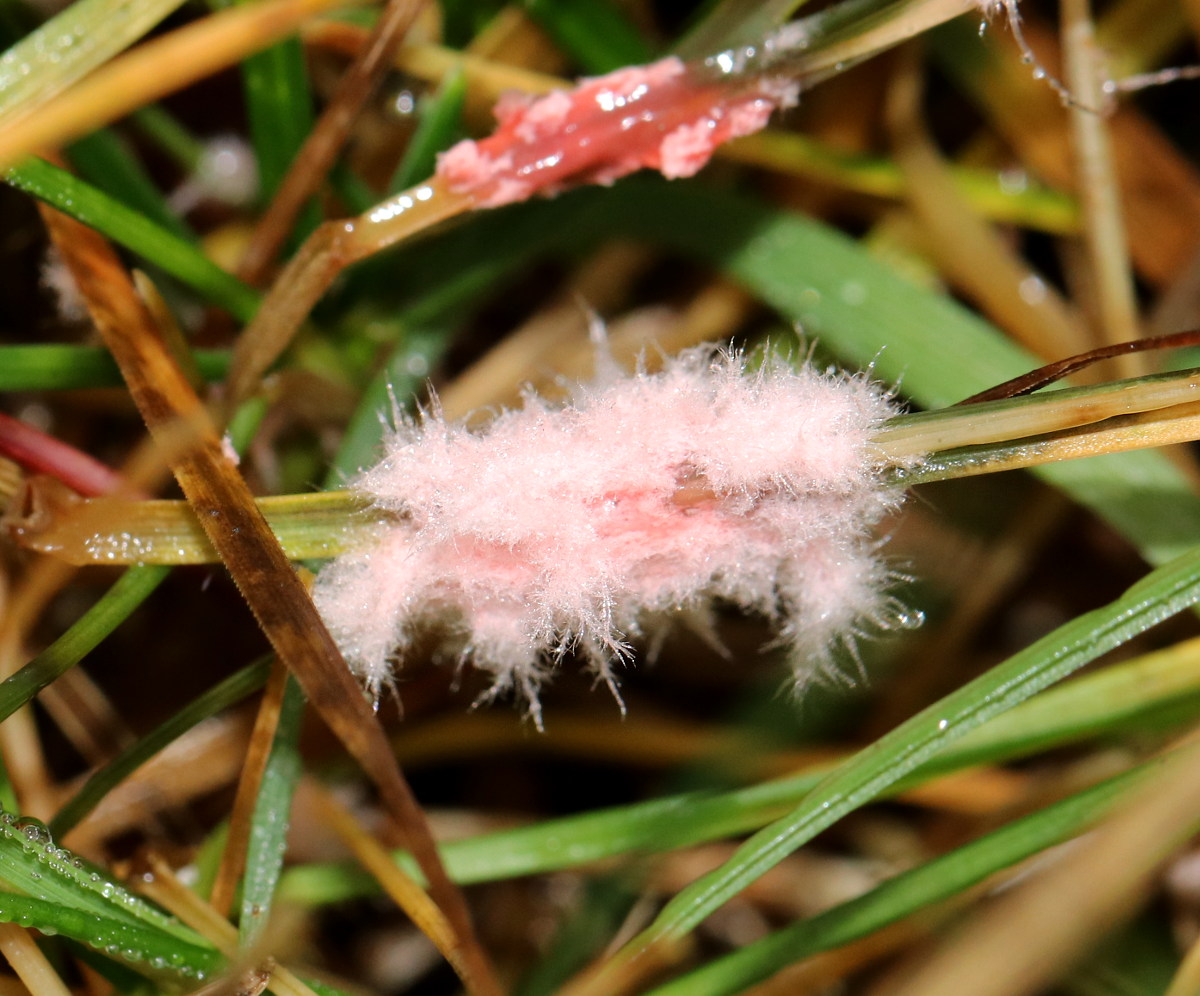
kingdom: Fungi
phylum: Basidiomycota
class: Agaricomycetes
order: Corticiales
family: Corticiaceae
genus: Laetisaria
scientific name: Laetisaria
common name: rødtråd
